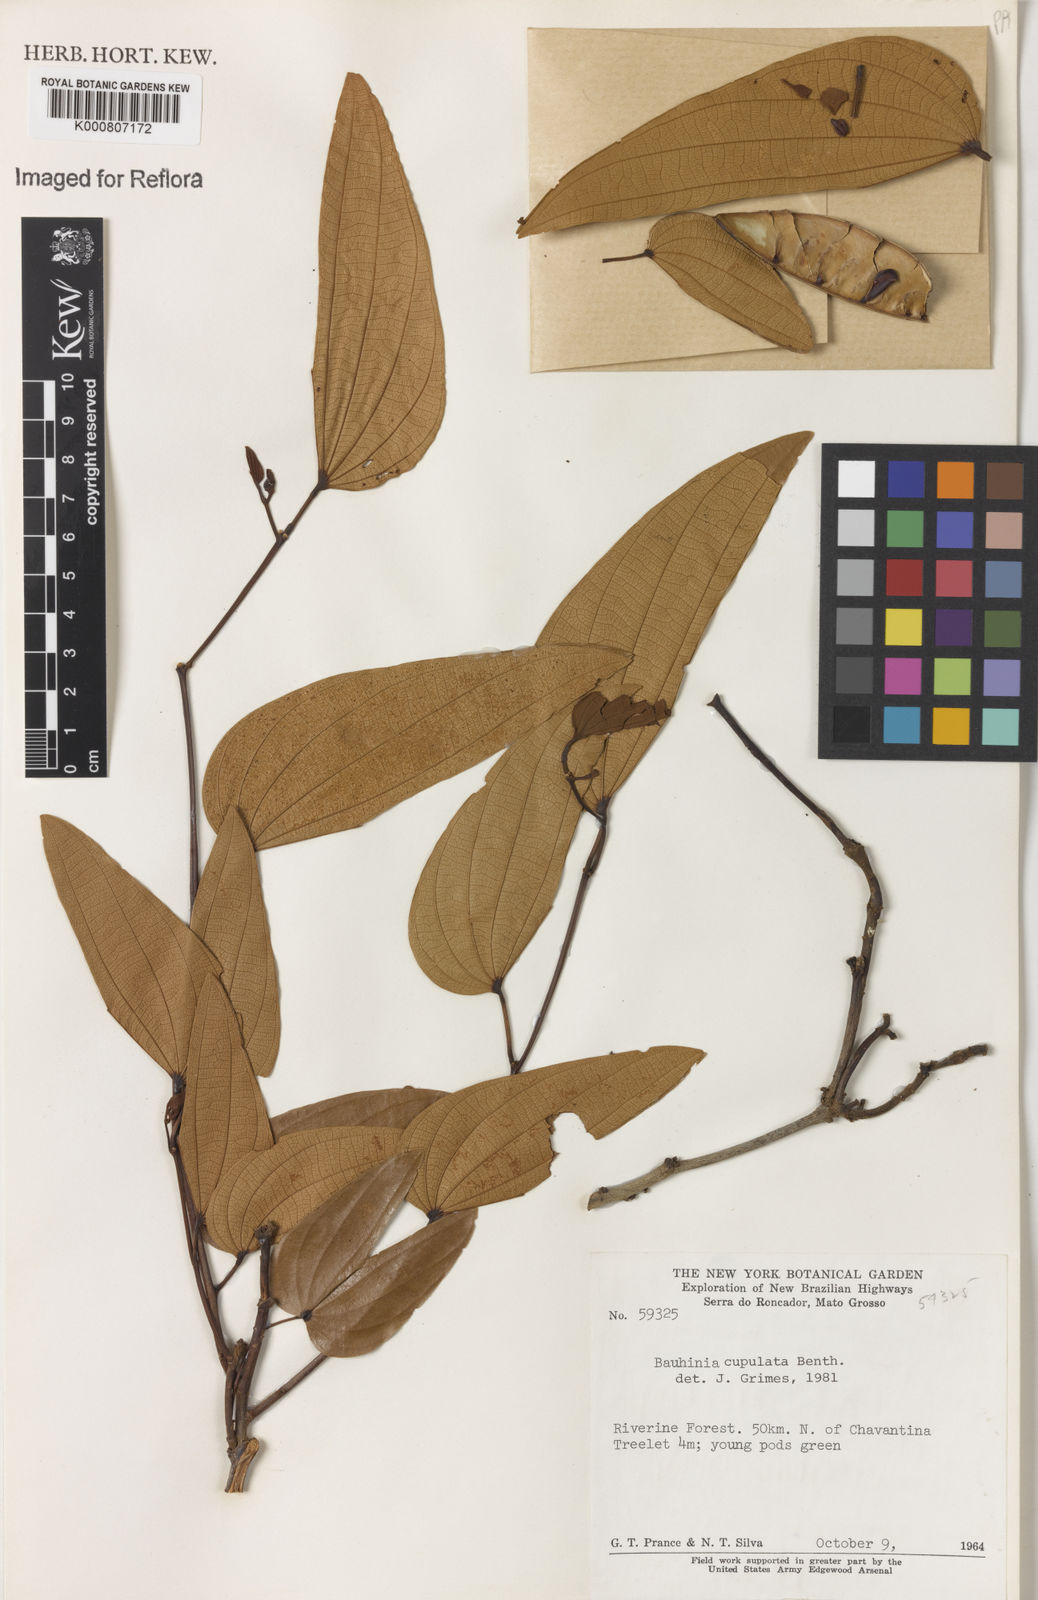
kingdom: Plantae
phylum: Tracheophyta
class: Magnoliopsida
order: Fabales
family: Fabaceae
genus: Bauhinia
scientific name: Bauhinia cupulata
